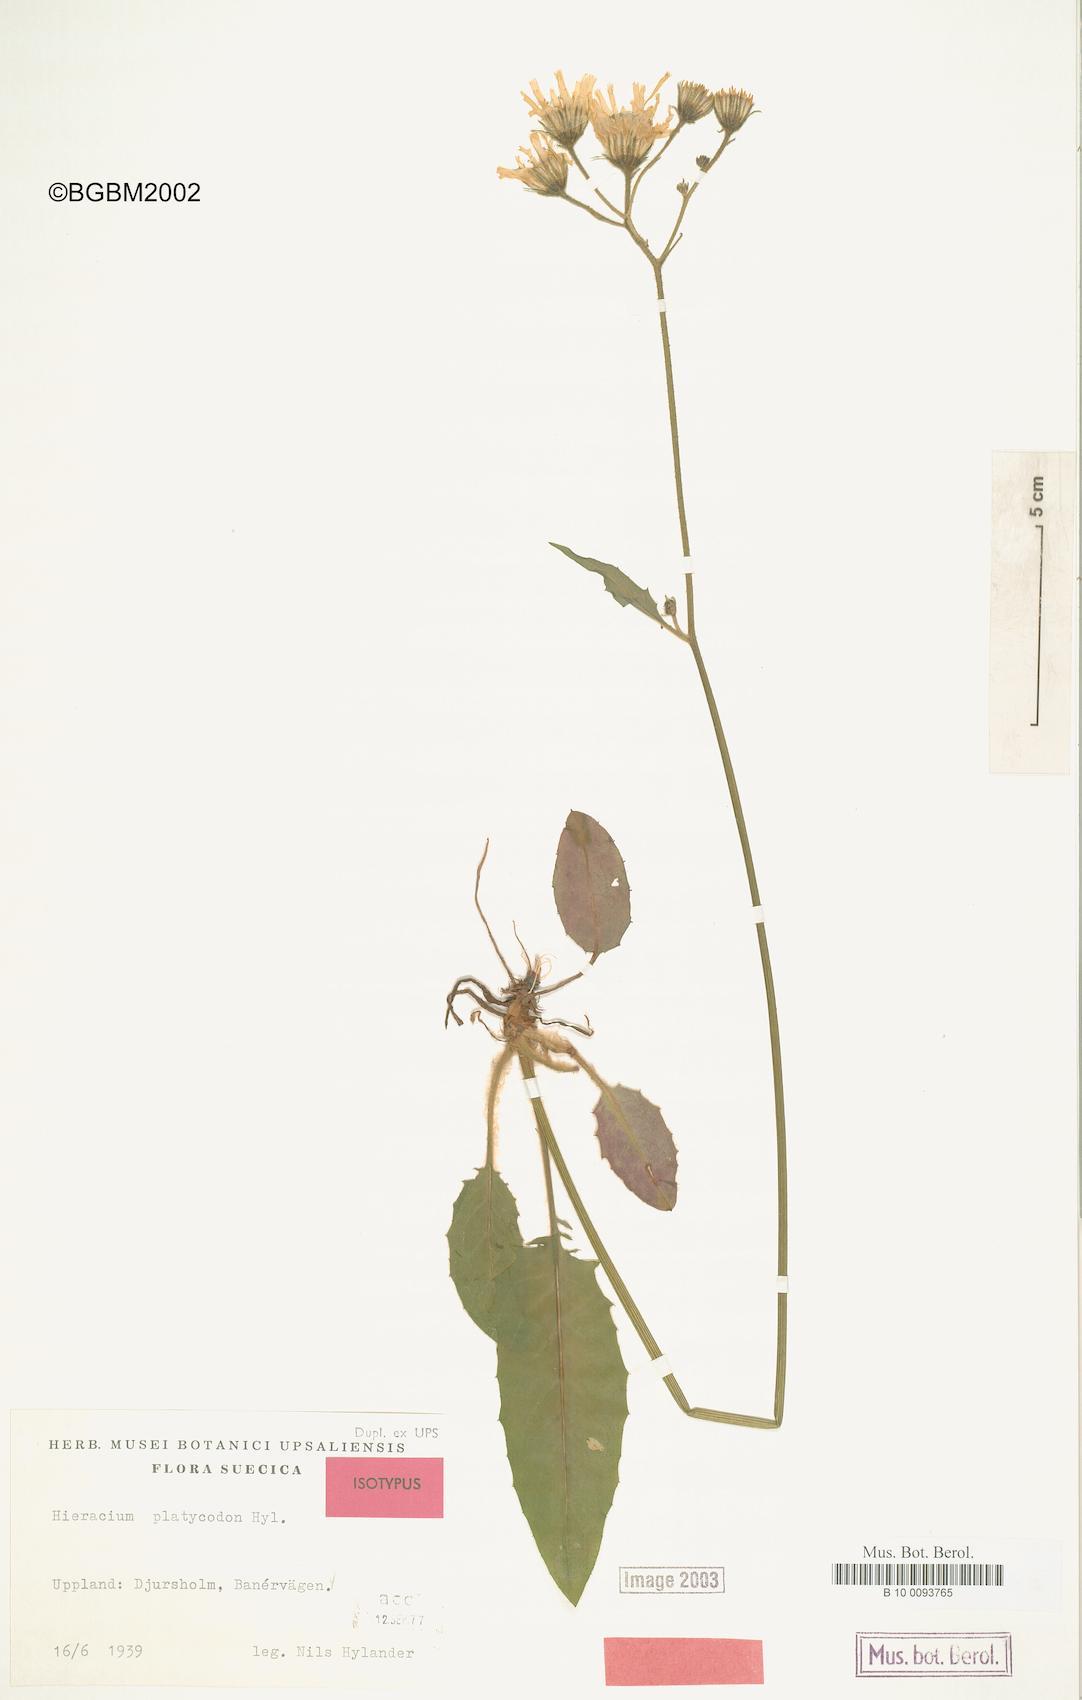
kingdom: Plantae
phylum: Tracheophyta
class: Magnoliopsida
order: Asterales
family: Asteraceae
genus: Hieracium
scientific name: Hieracium otophorum
